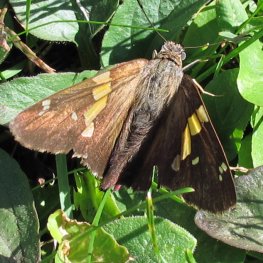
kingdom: Animalia
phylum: Arthropoda
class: Insecta
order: Lepidoptera
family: Hesperiidae
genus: Epargyreus
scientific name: Epargyreus clarus
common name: Silver-spotted Skipper
